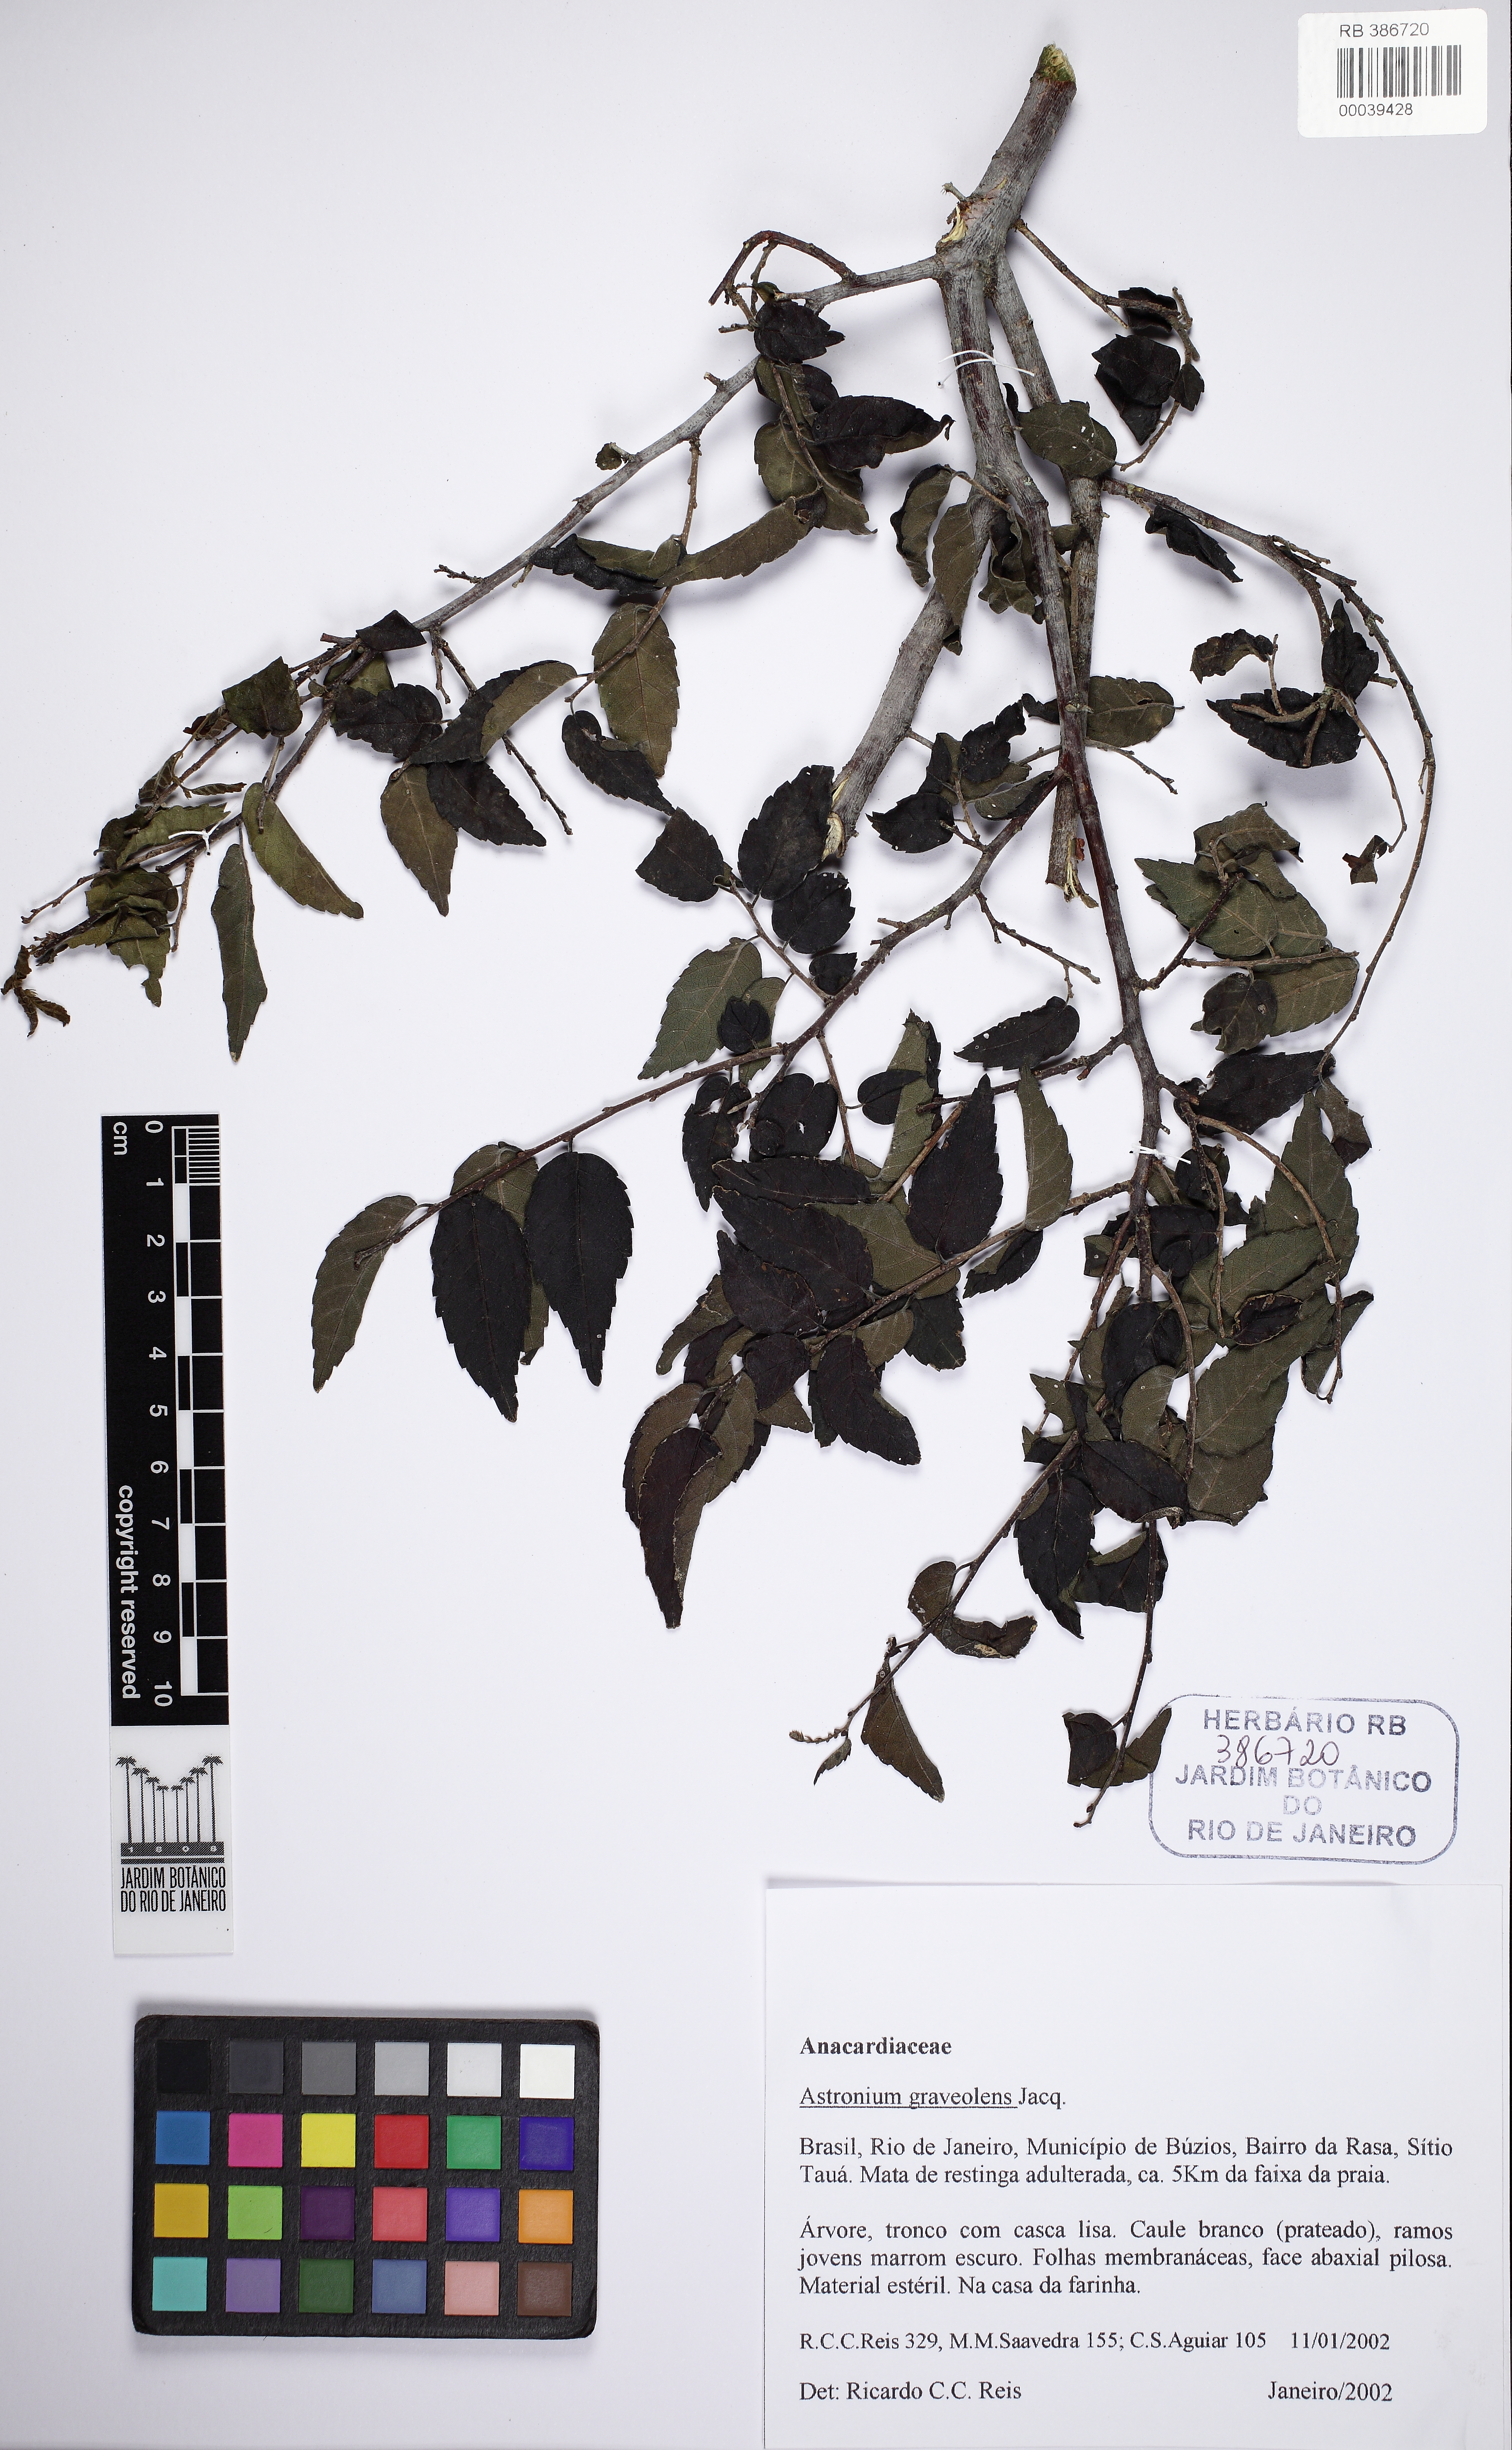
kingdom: Plantae
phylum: Tracheophyta
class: Magnoliopsida
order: Sapindales
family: Anacardiaceae
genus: Astronium
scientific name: Astronium graveolens
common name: Glassywood
